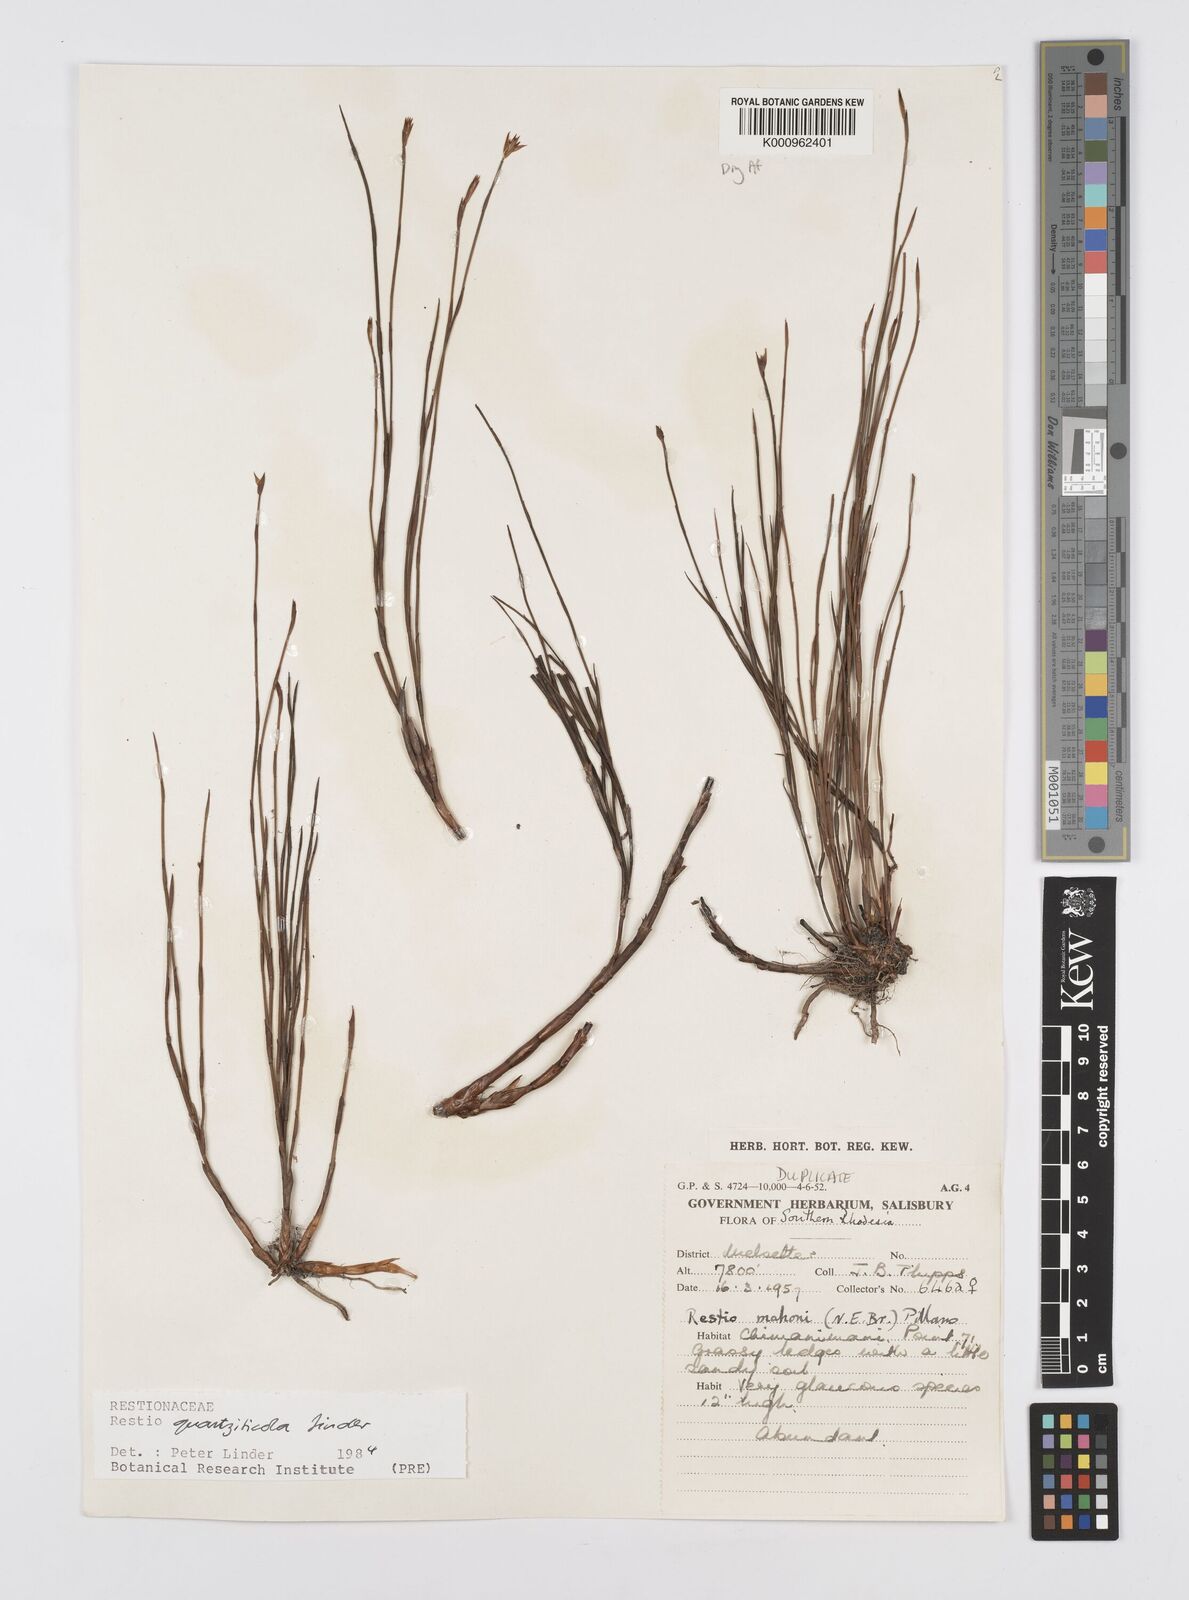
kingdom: Plantae
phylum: Tracheophyta
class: Liliopsida
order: Poales
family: Restionaceae
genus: Platycaulos
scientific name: Platycaulos quartziticola
